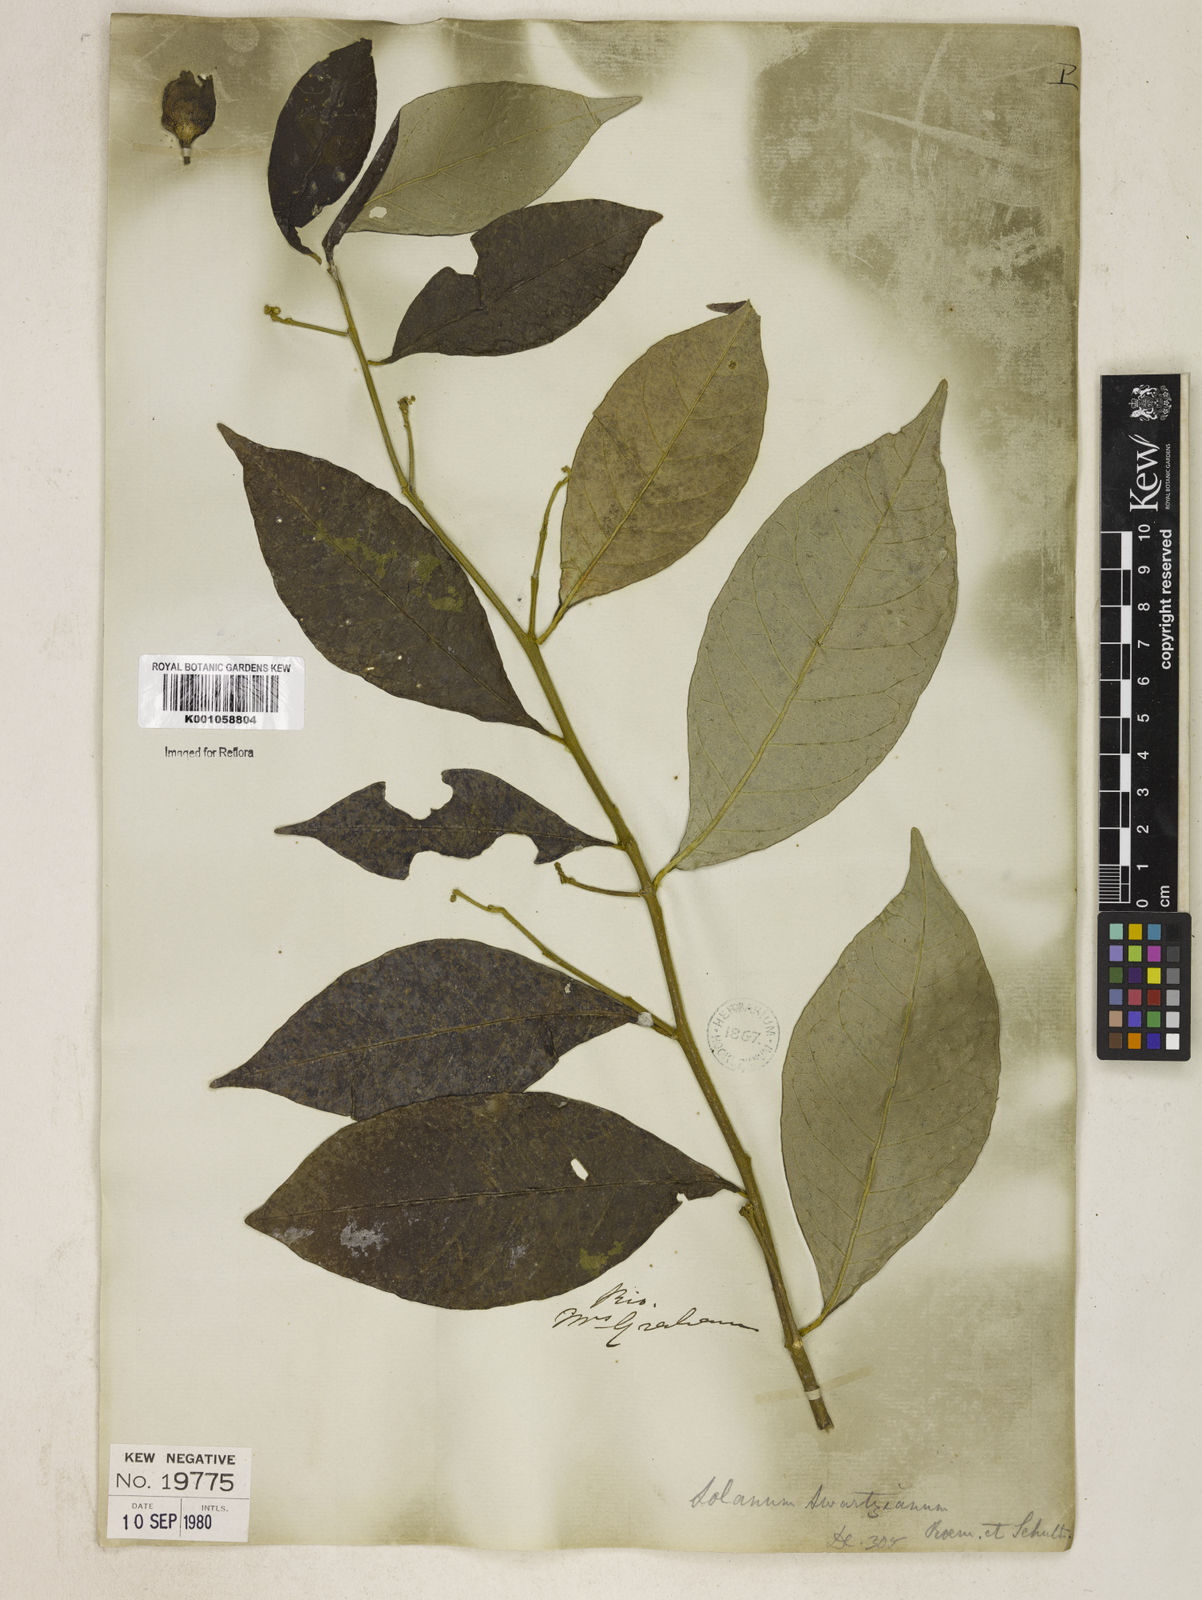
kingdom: Plantae
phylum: Tracheophyta
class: Magnoliopsida
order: Solanales
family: Solanaceae
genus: Solanum
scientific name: Solanum swartzianum
